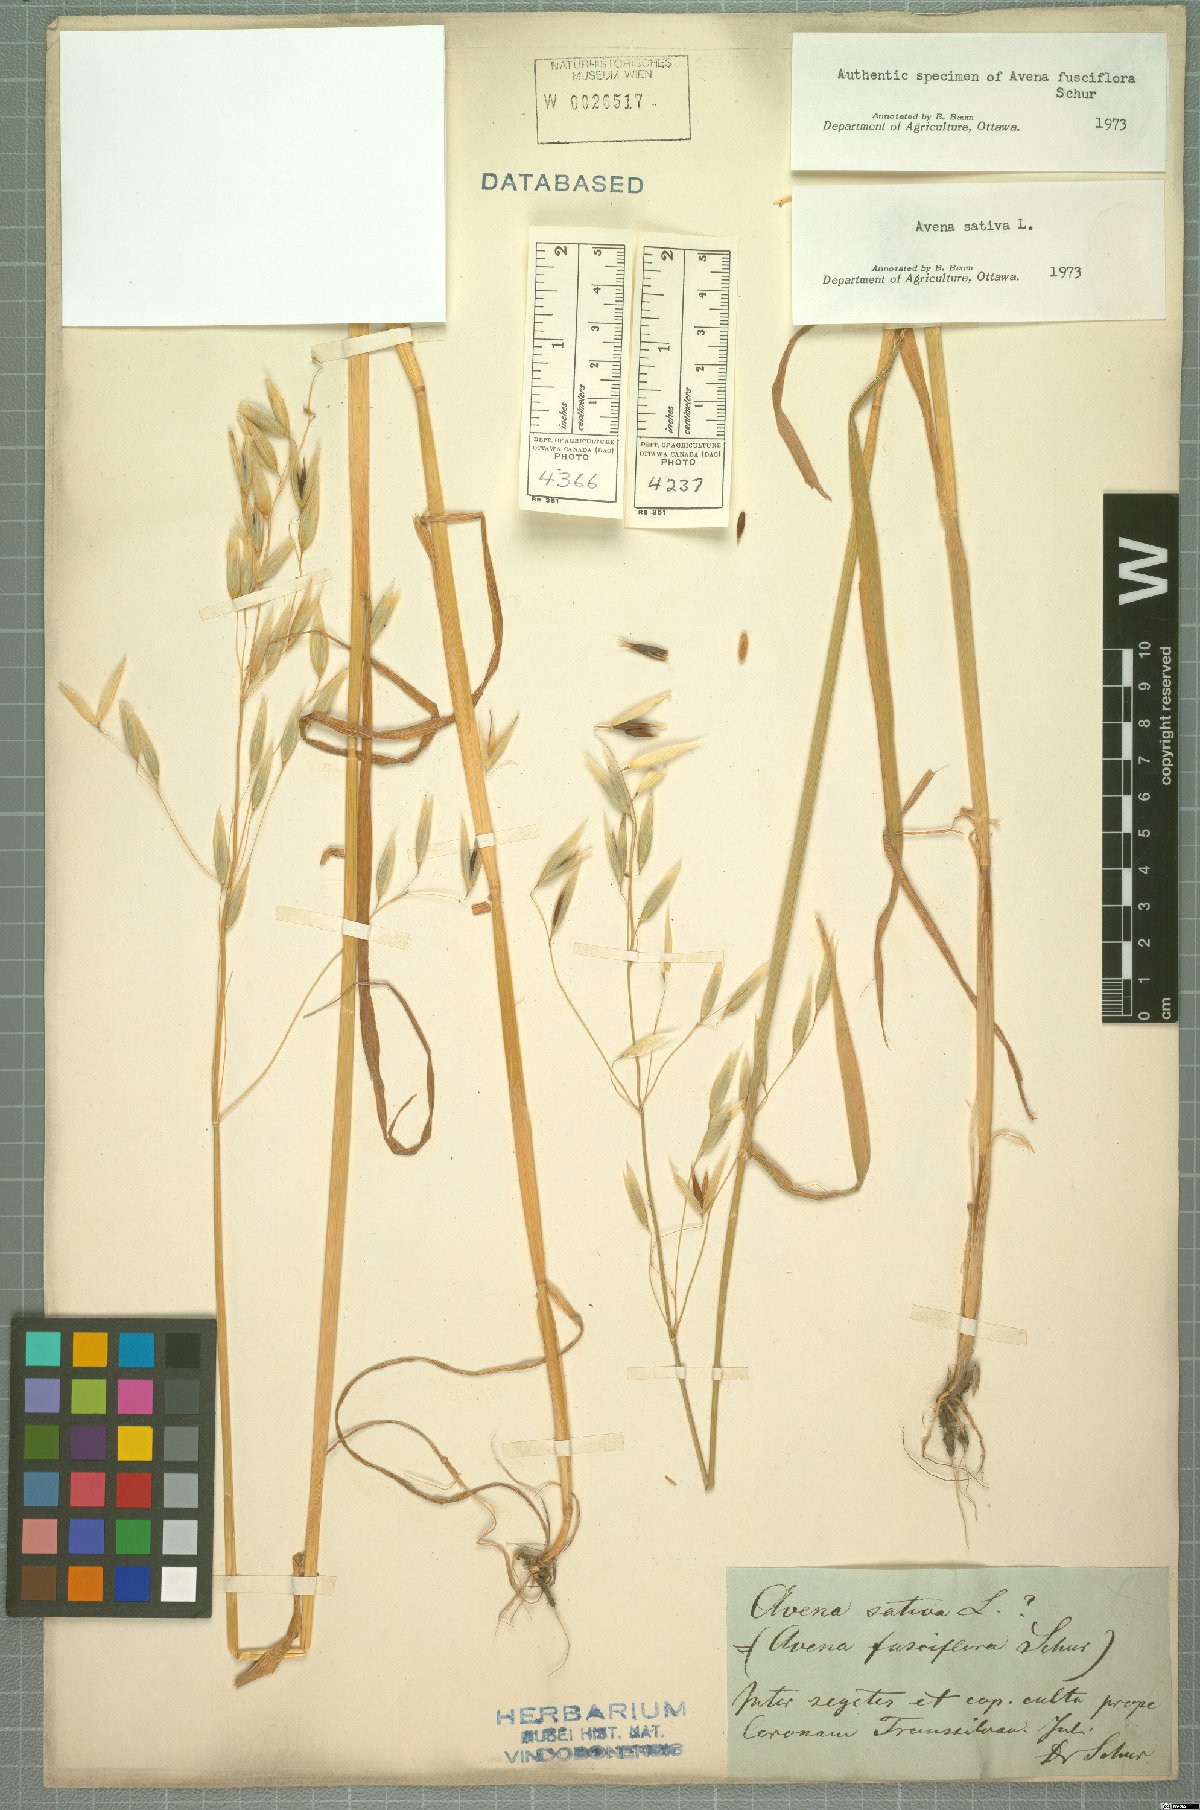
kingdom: Plantae
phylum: Tracheophyta
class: Liliopsida
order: Poales
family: Poaceae
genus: Avena
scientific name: Avena sativa
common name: Oat
